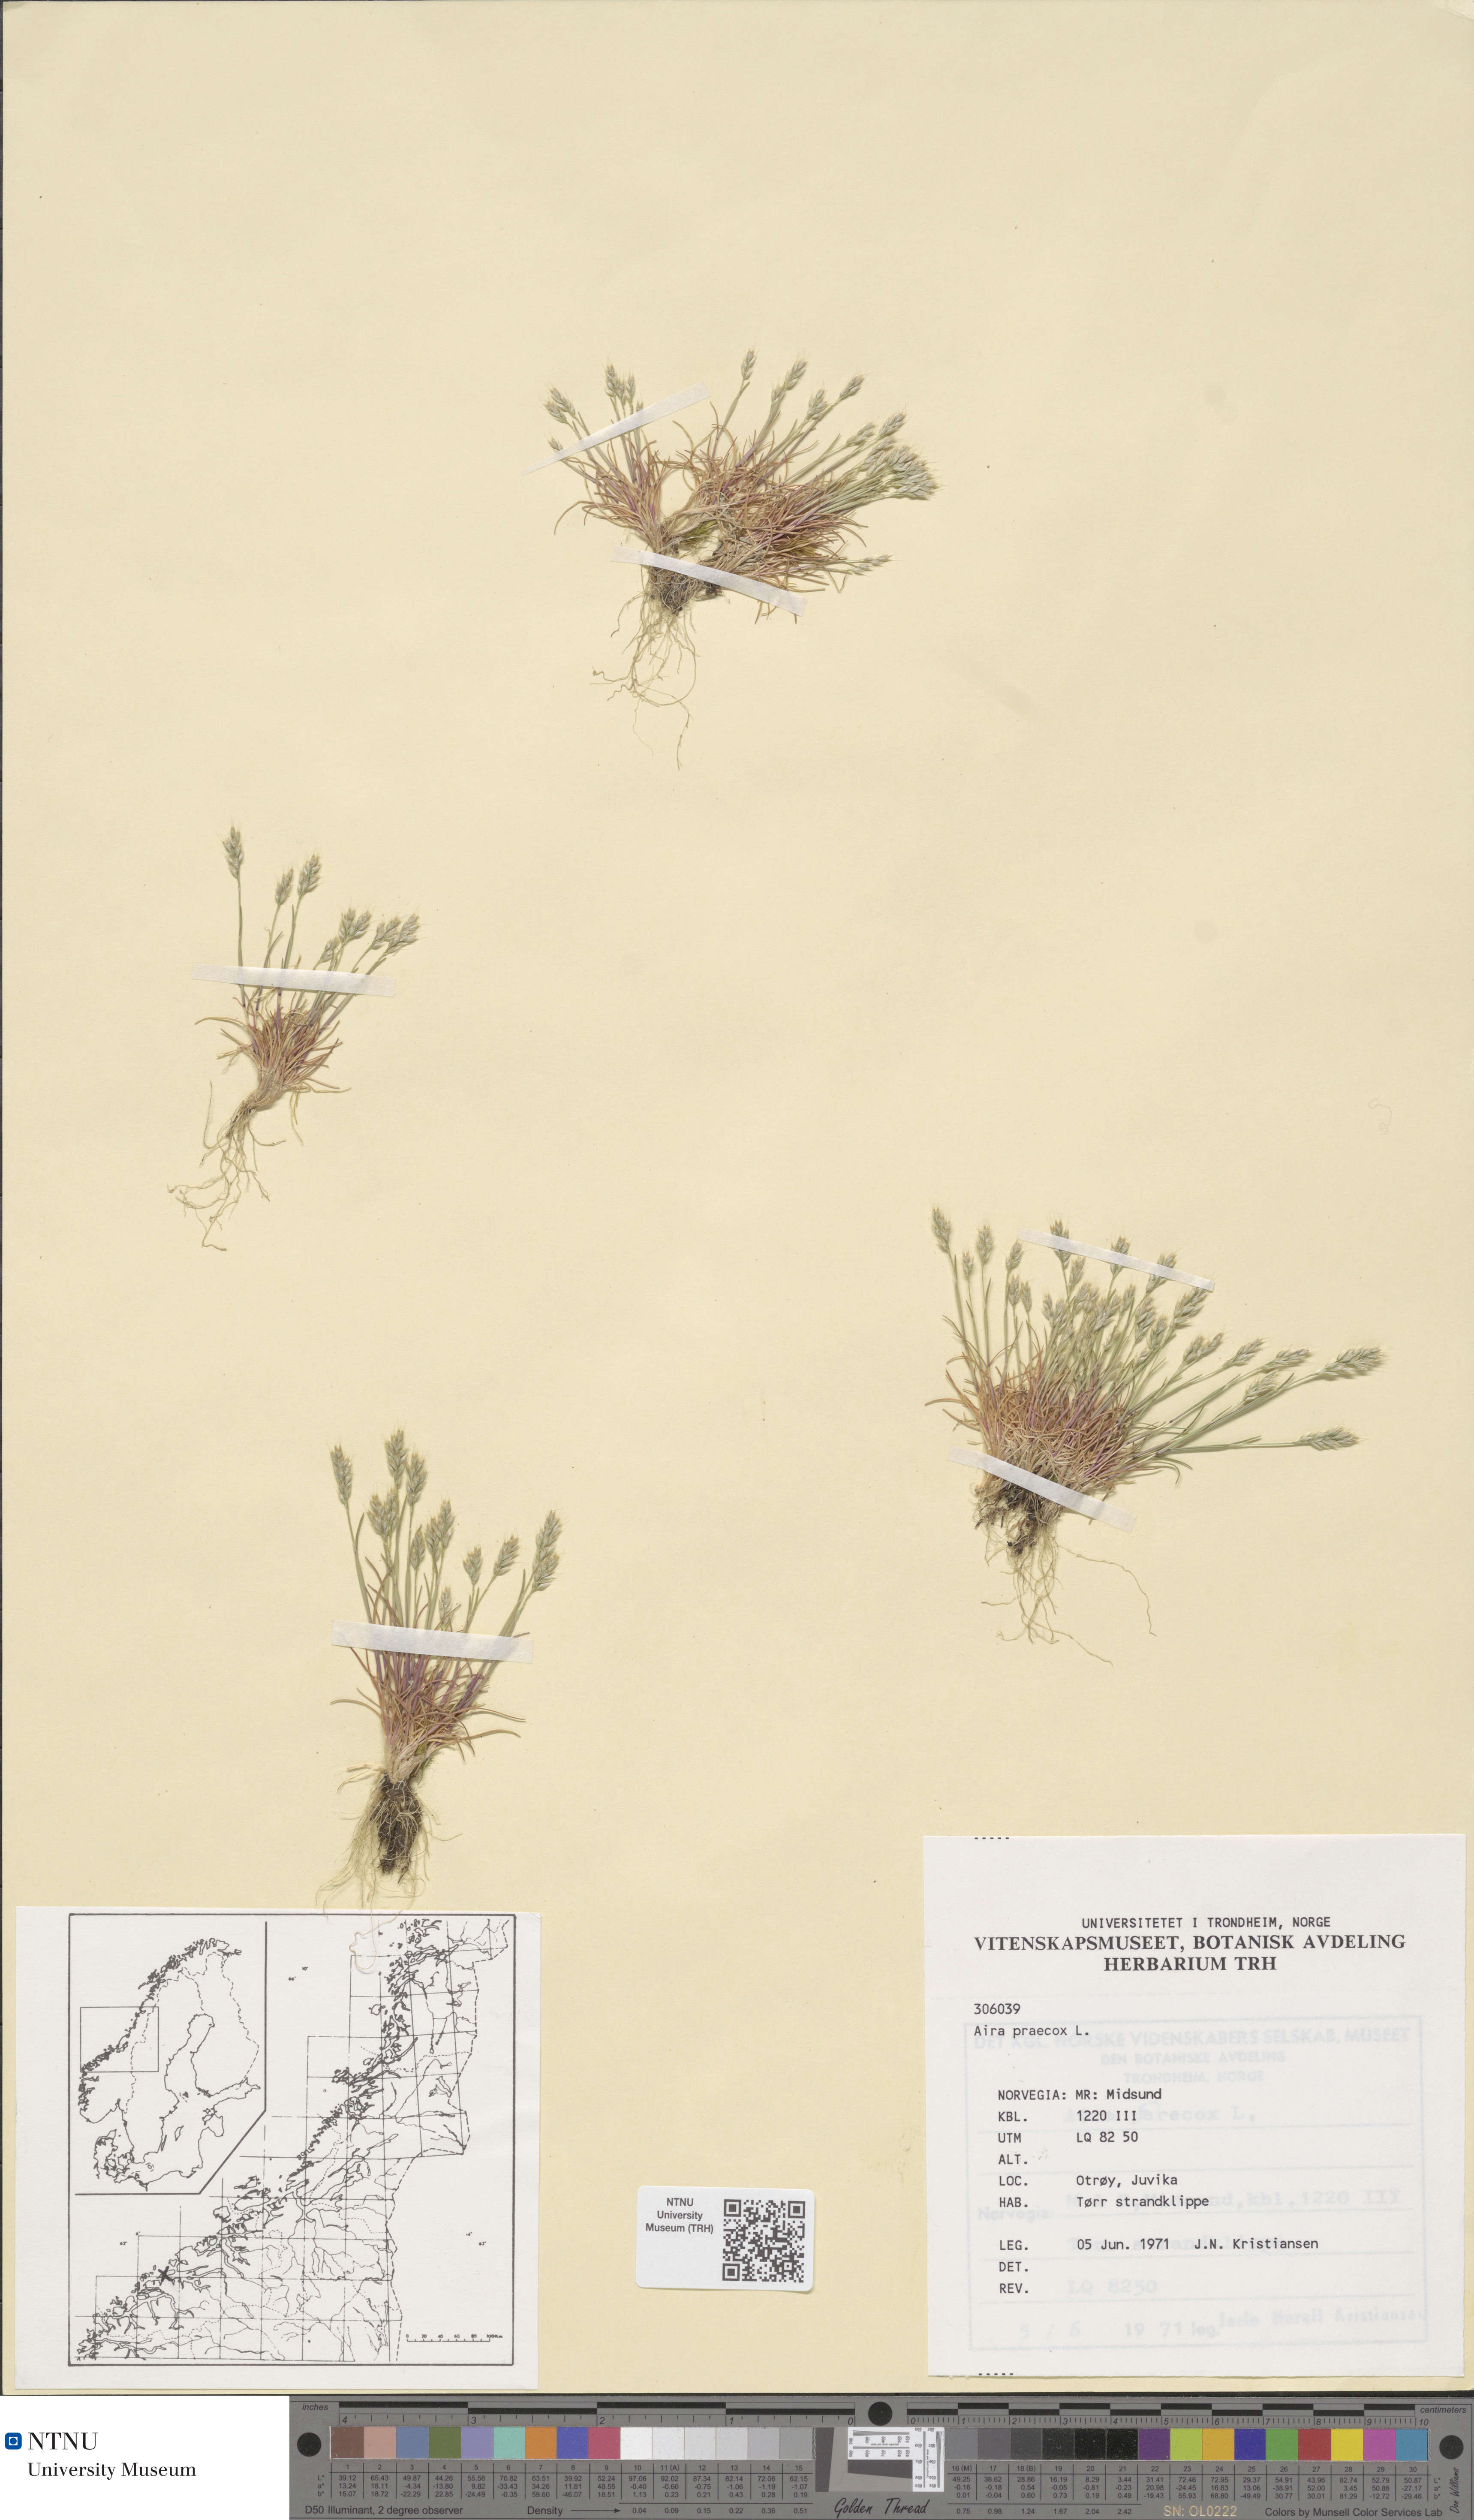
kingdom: Plantae
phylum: Tracheophyta
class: Liliopsida
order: Poales
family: Poaceae
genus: Aira
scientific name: Aira praecox
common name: Early hair-grass
